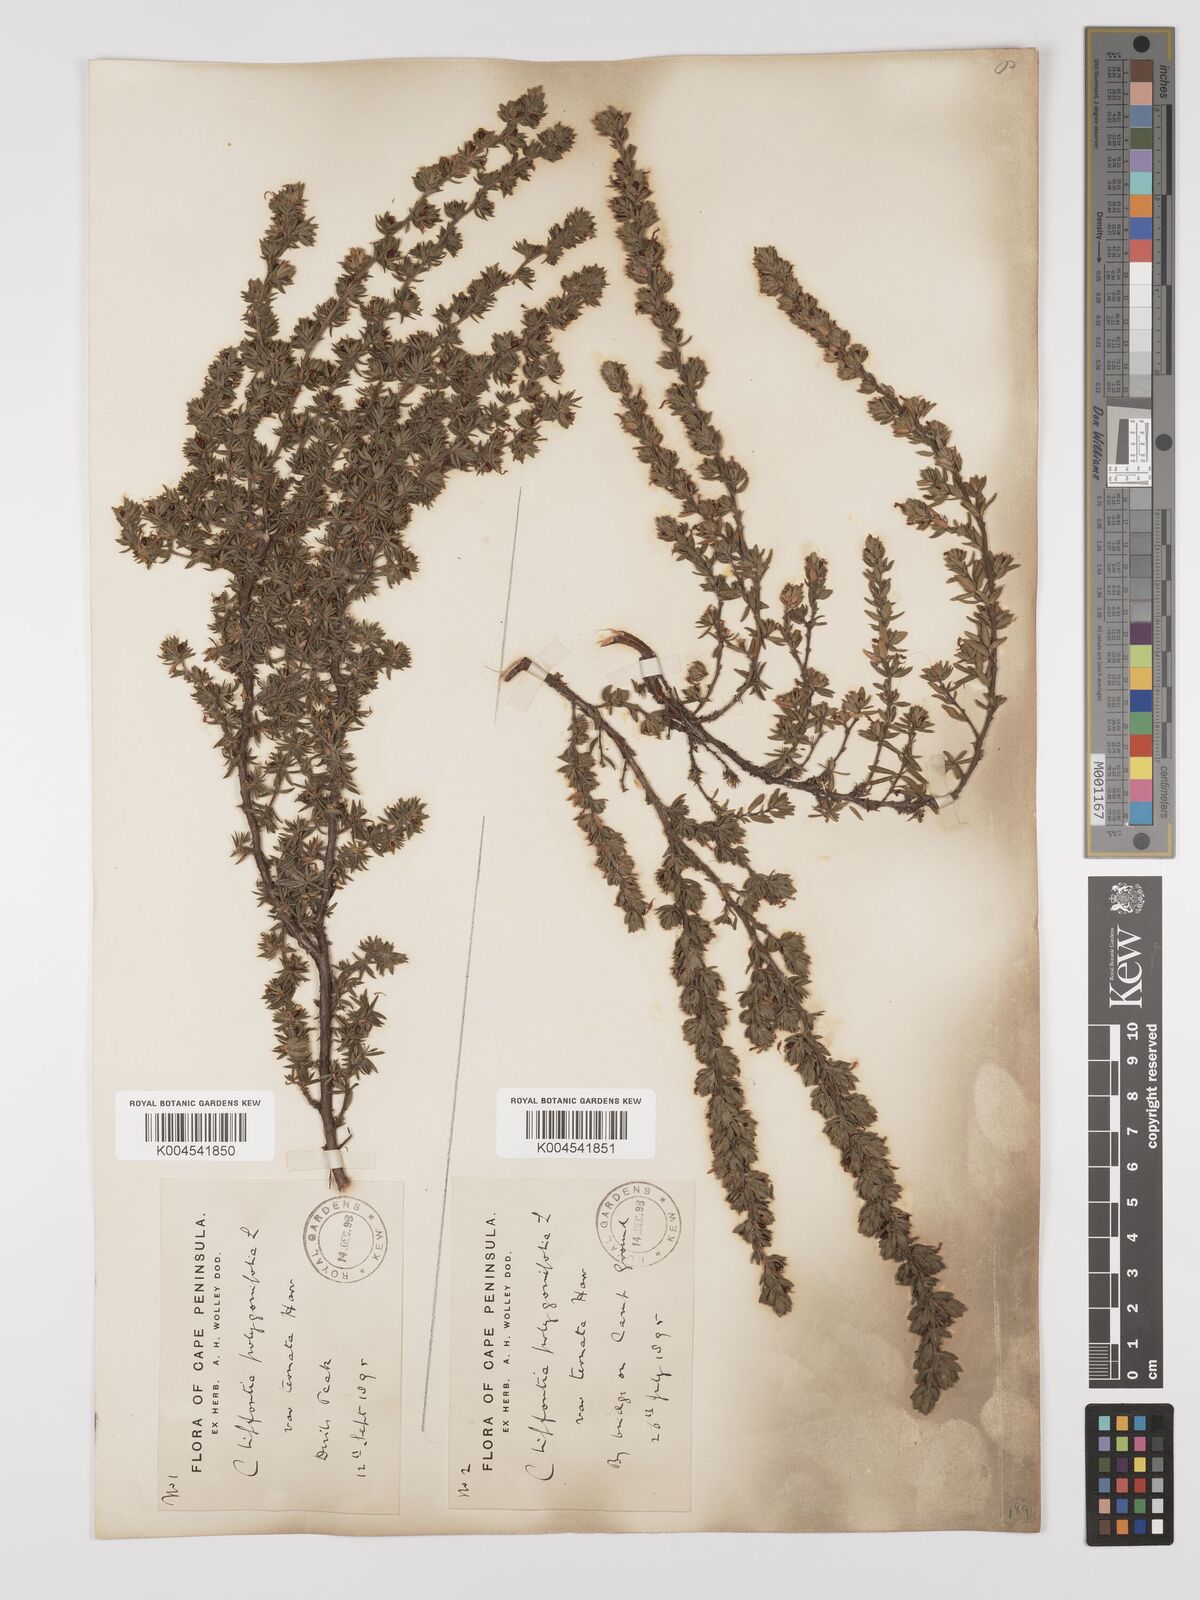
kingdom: Plantae
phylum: Tracheophyta
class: Magnoliopsida
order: Rosales
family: Rosaceae
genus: Cliffortia
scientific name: Cliffortia polygonifolia
